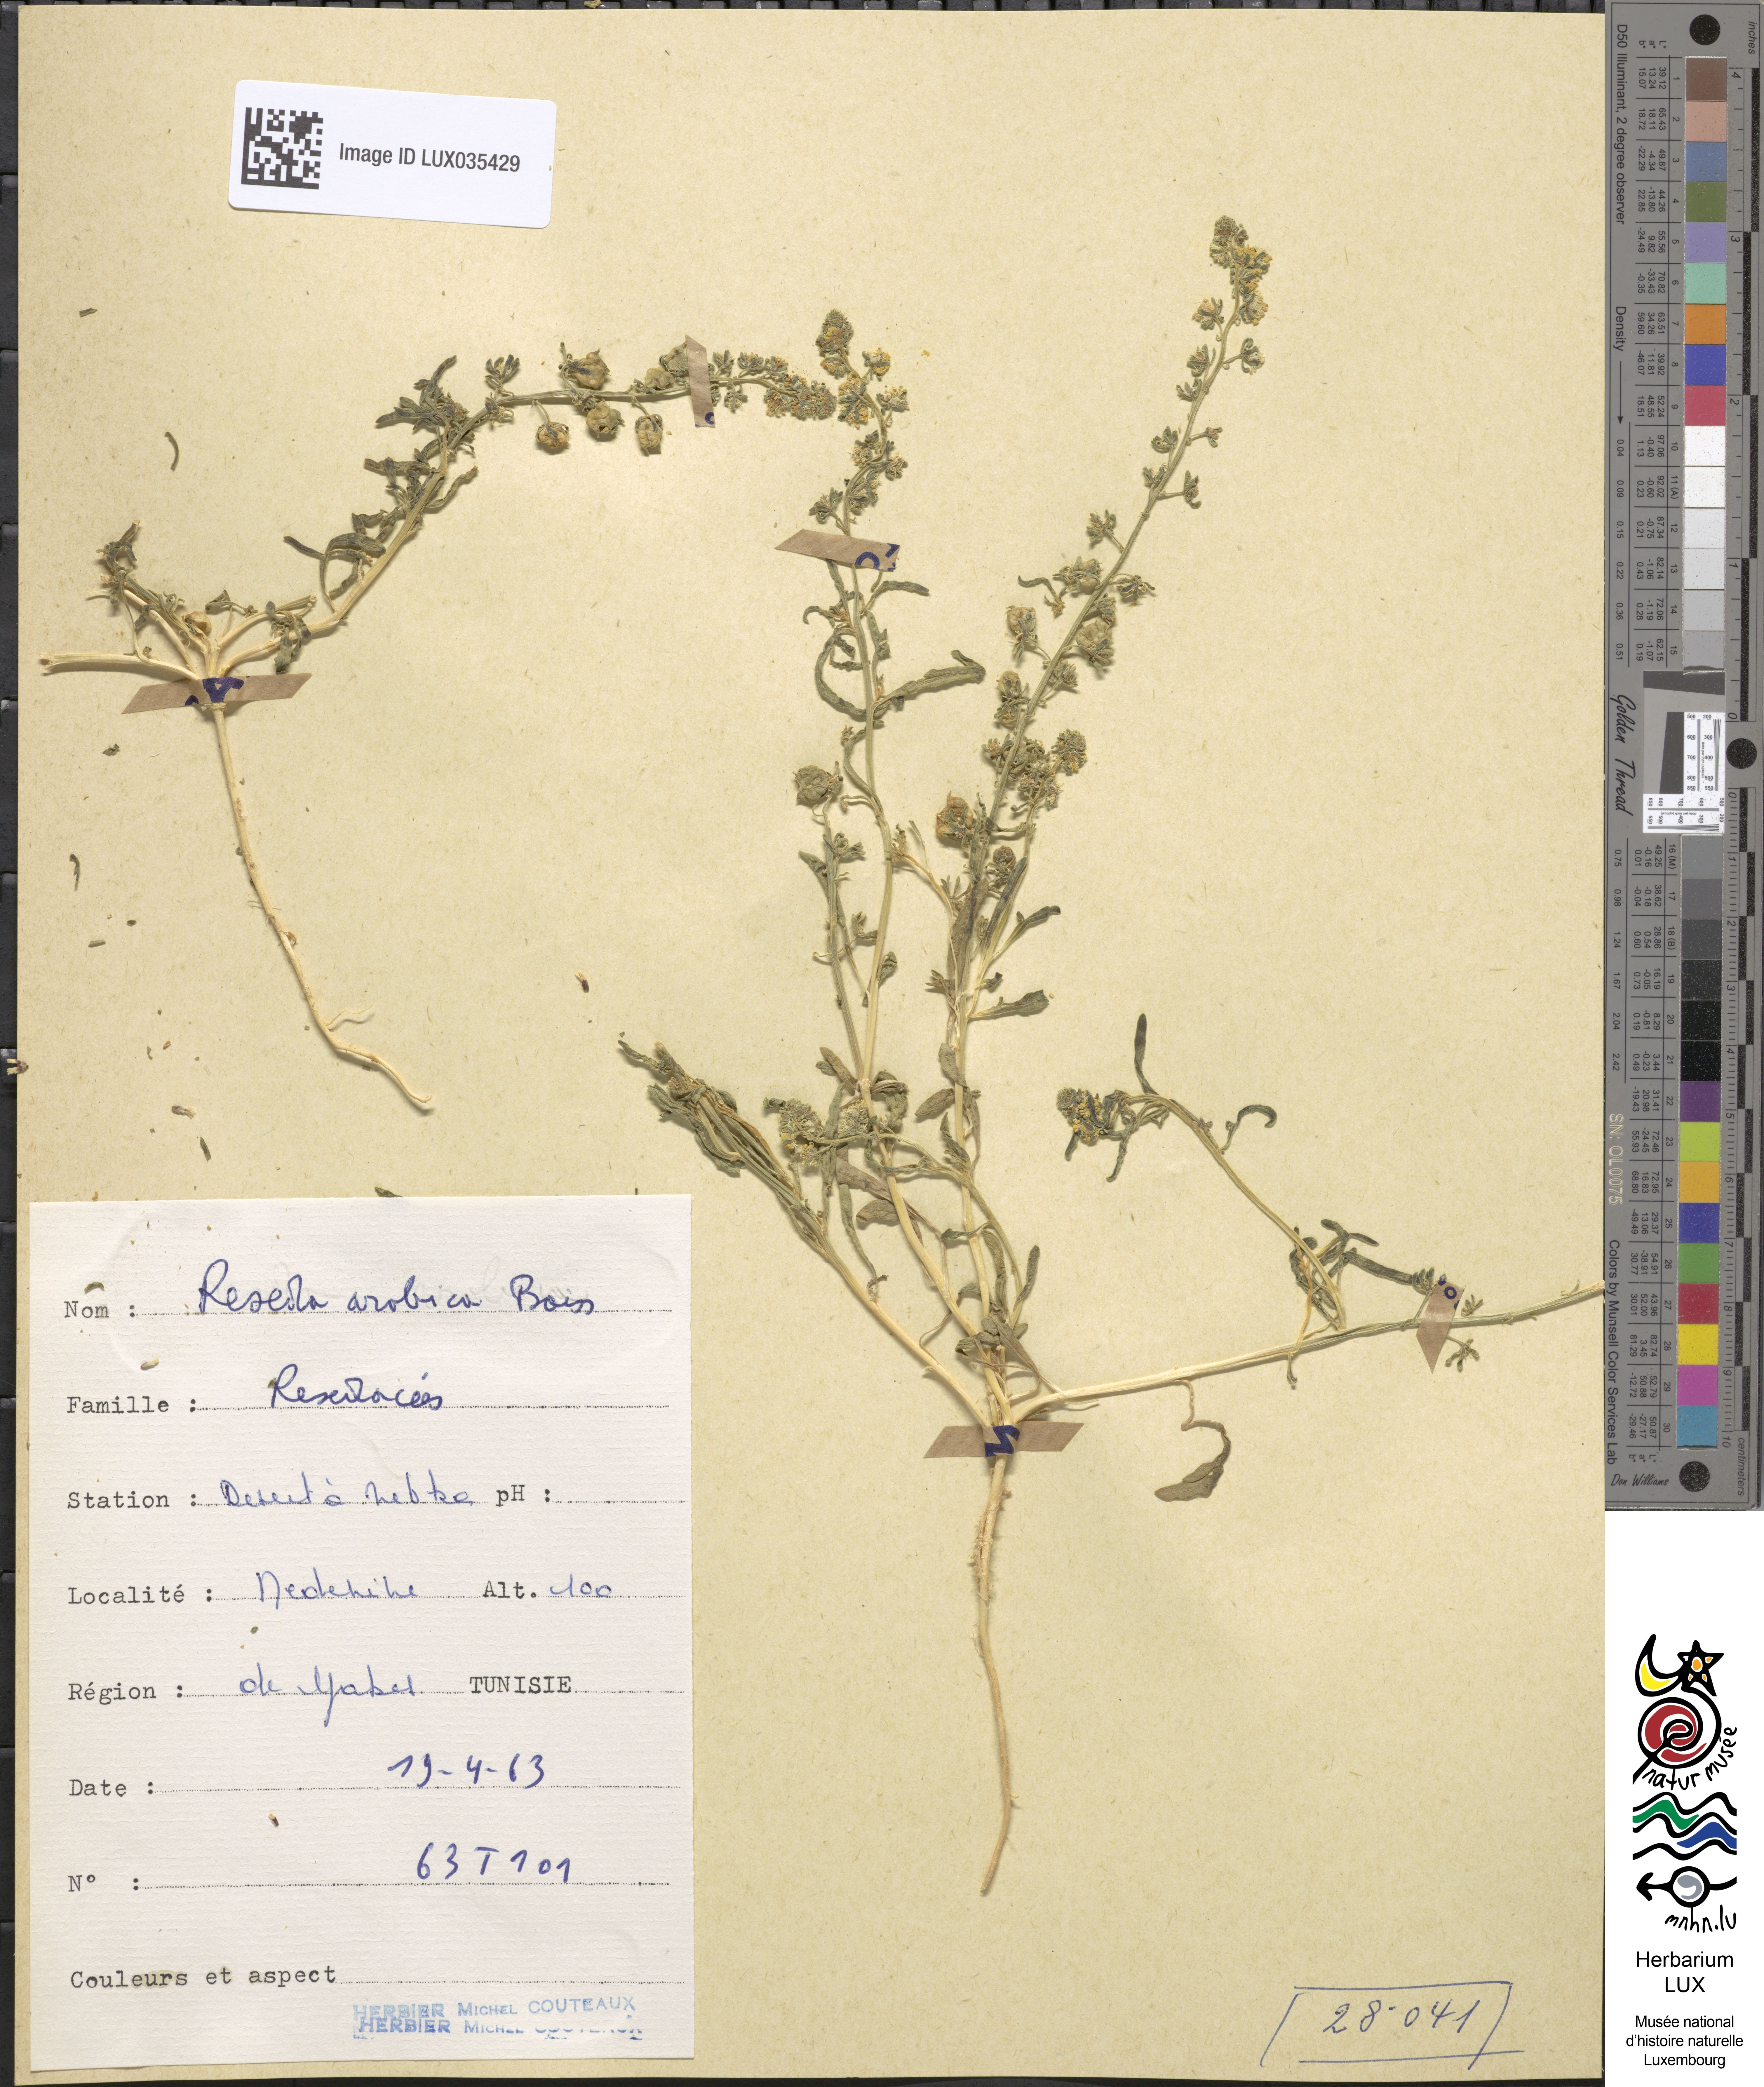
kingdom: Plantae
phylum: Tracheophyta
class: Magnoliopsida
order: Brassicales
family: Resedaceae
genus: Reseda
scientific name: Reseda arabica
